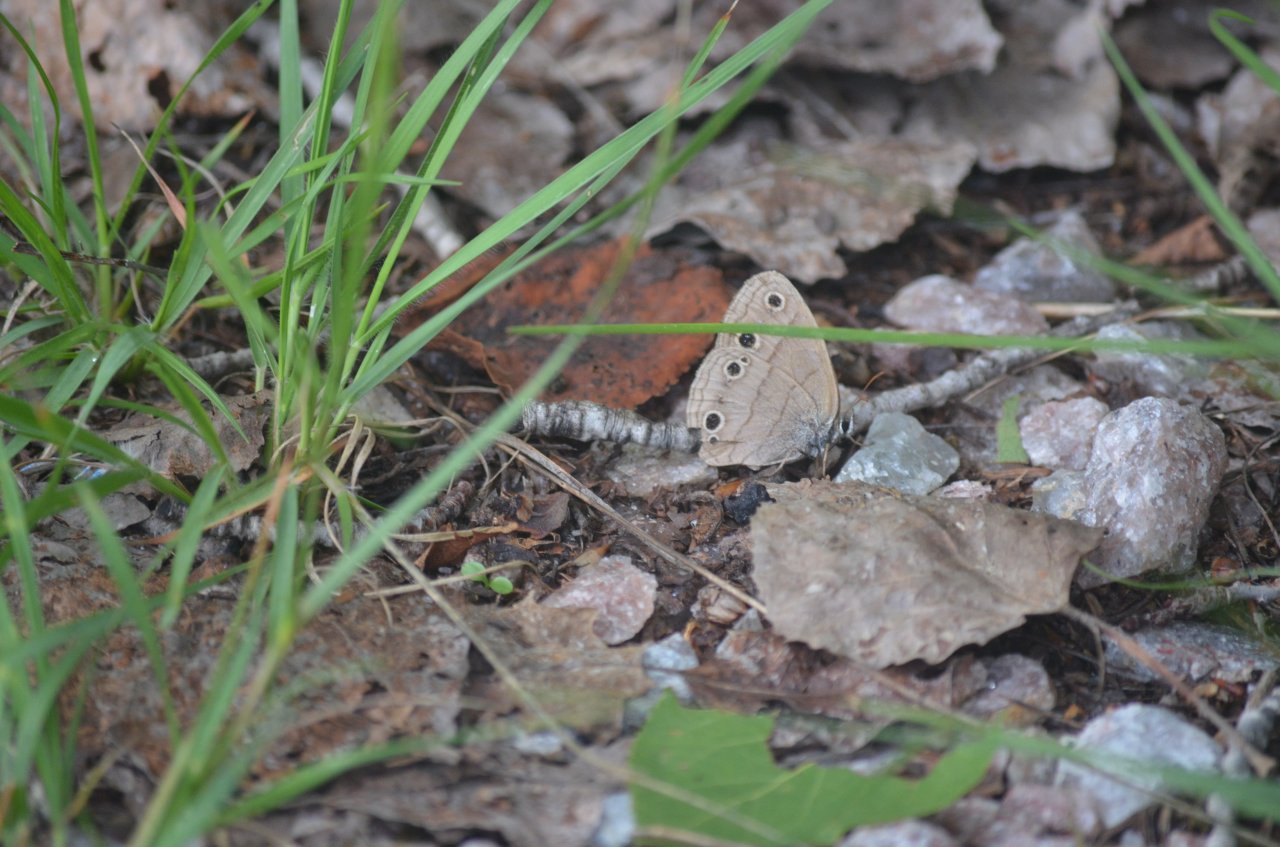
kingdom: Animalia
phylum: Arthropoda
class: Insecta
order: Lepidoptera
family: Nymphalidae
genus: Euptychia
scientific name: Euptychia cymela
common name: Little Wood Satyr
